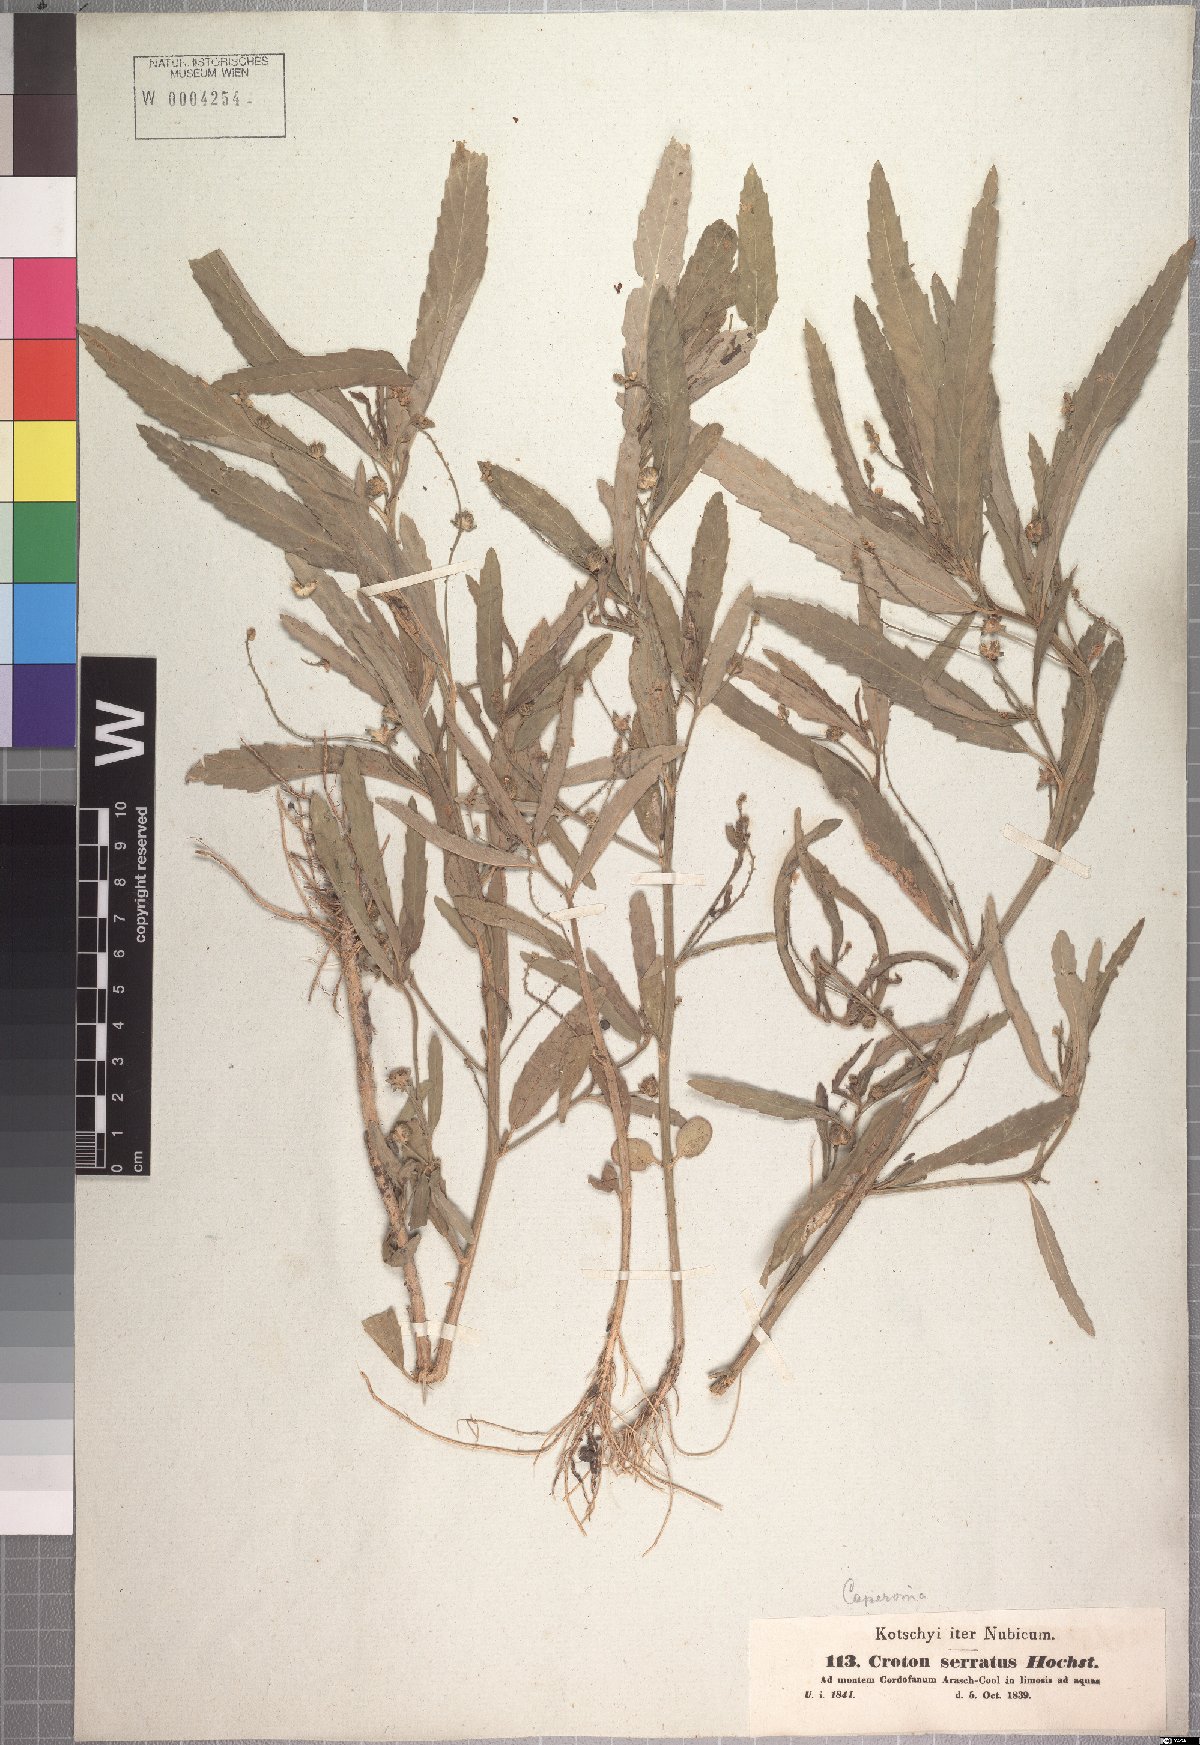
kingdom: Plantae
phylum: Tracheophyta
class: Magnoliopsida
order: Malpighiales
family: Euphorbiaceae
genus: Caperonia
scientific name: Caperonia serrata
